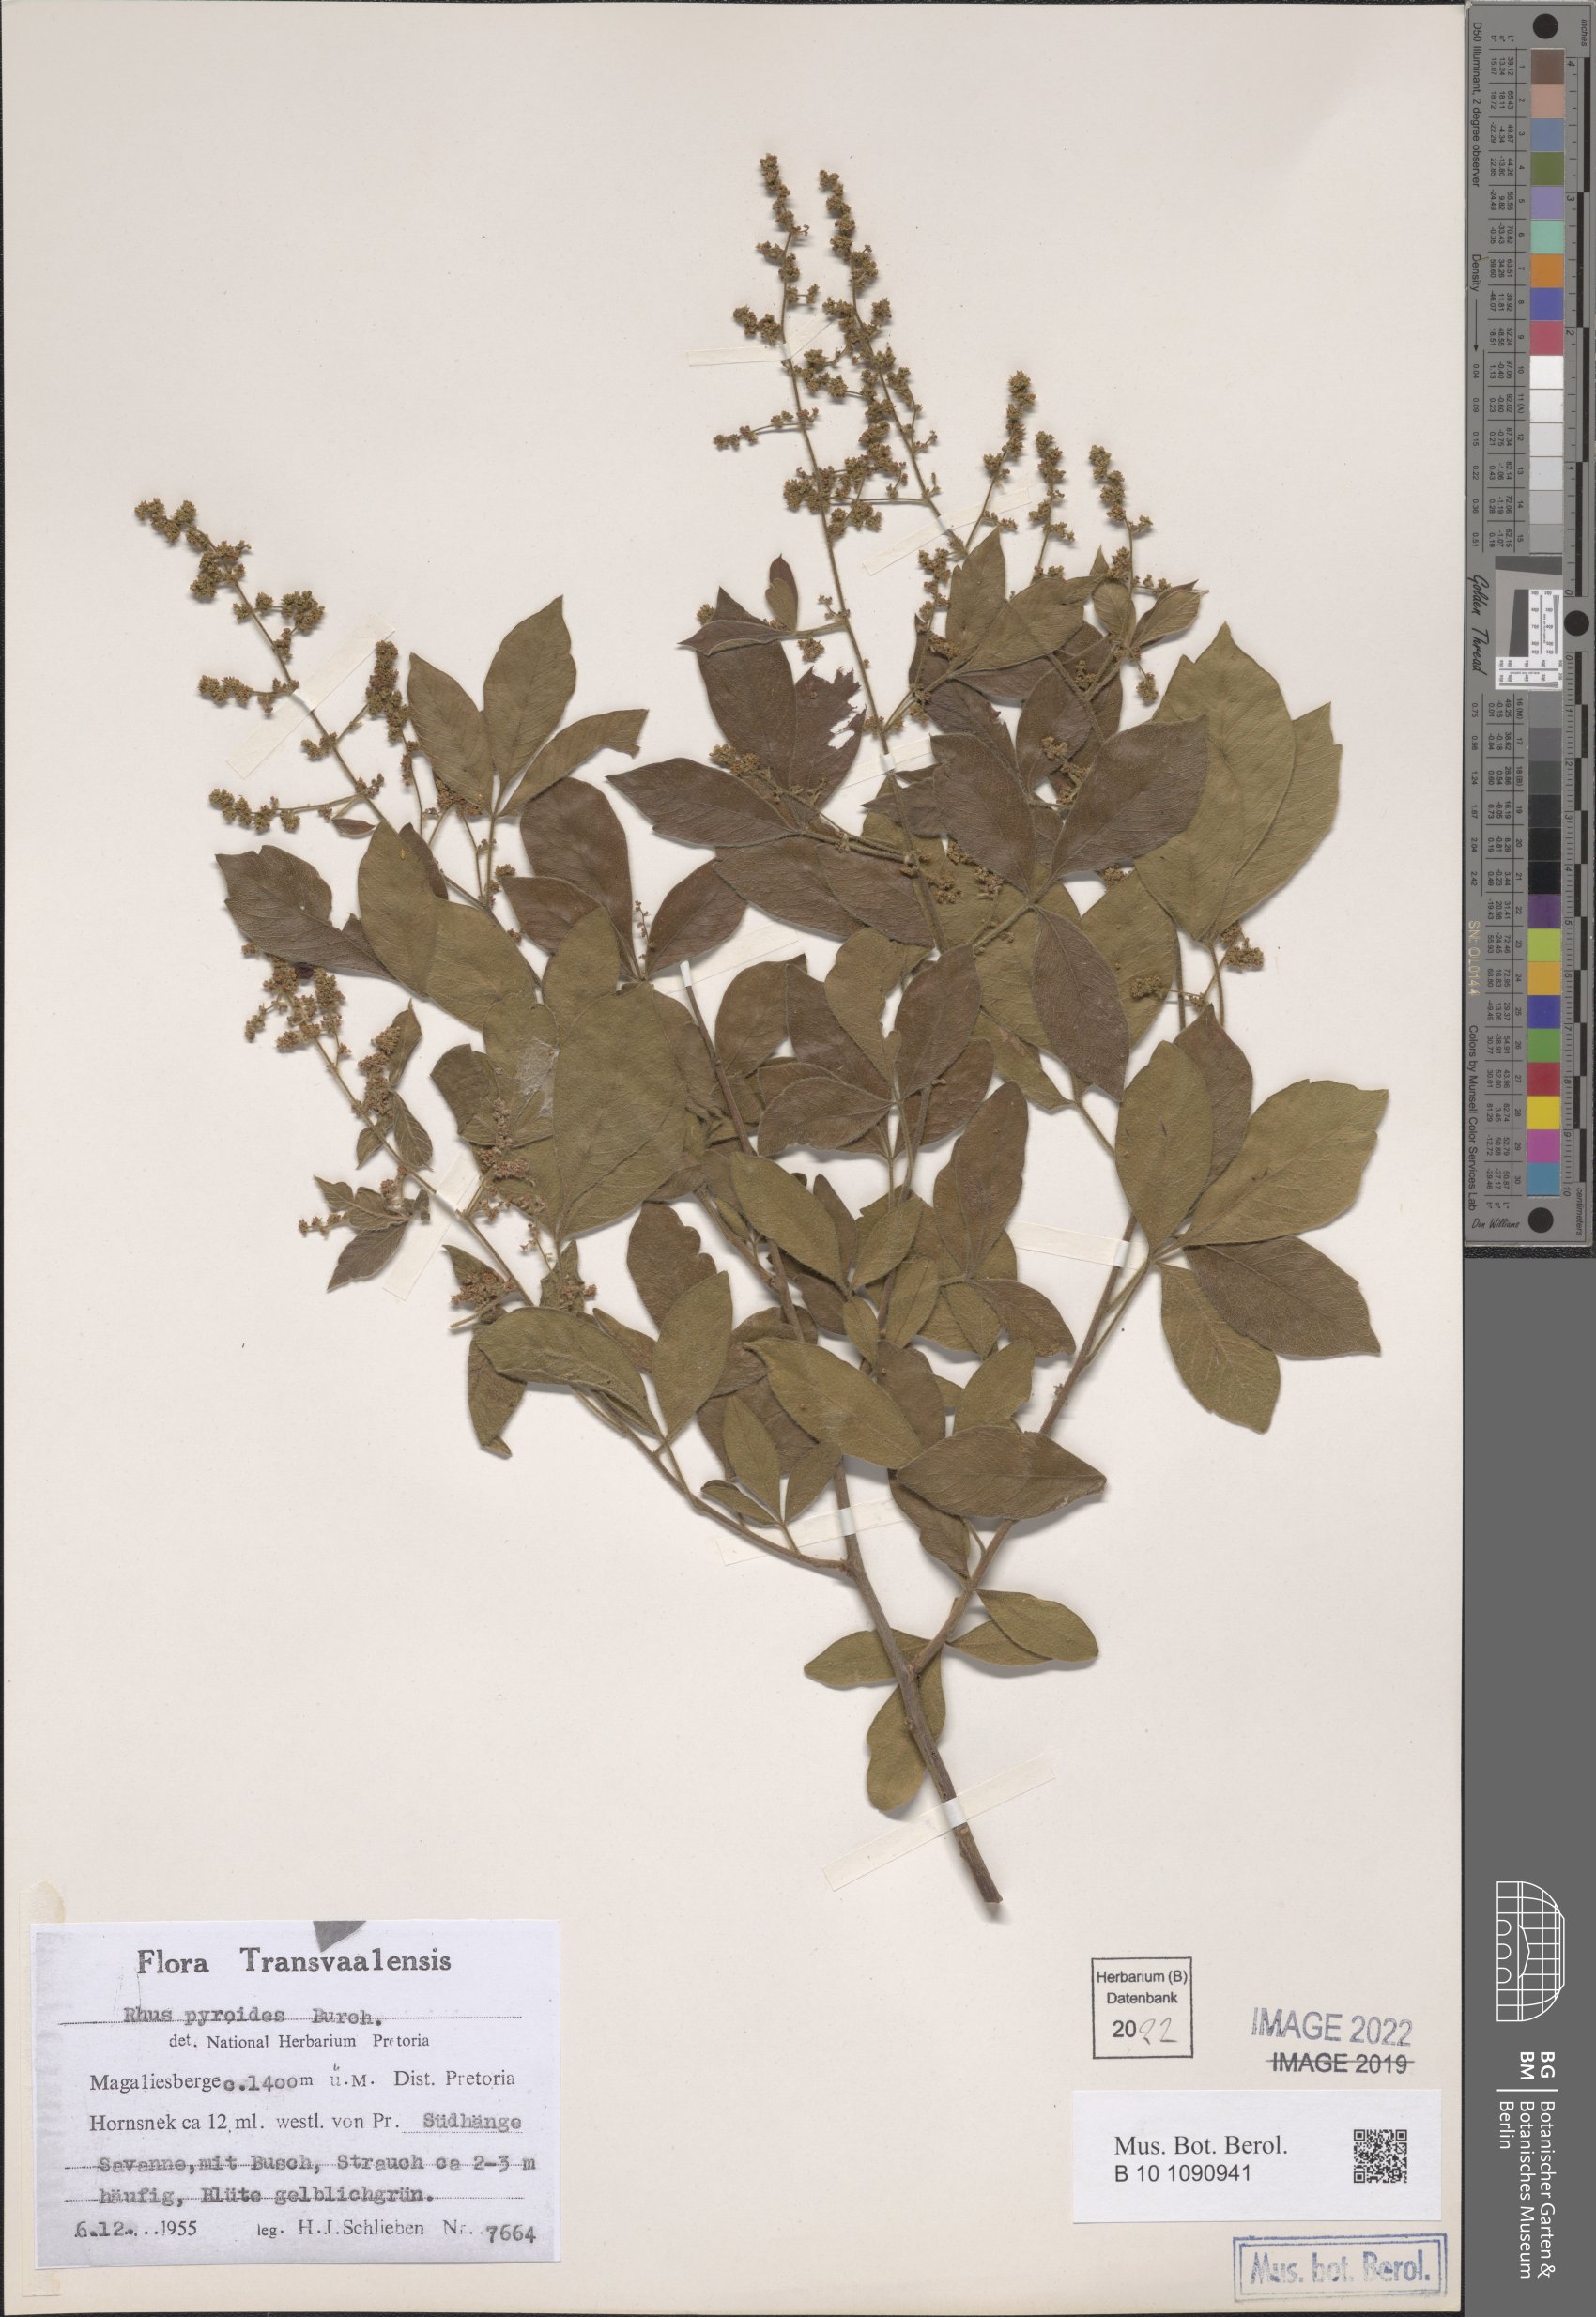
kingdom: Plantae
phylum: Tracheophyta
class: Magnoliopsida
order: Sapindales
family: Anacardiaceae
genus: Searsia
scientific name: Searsia pyroides
